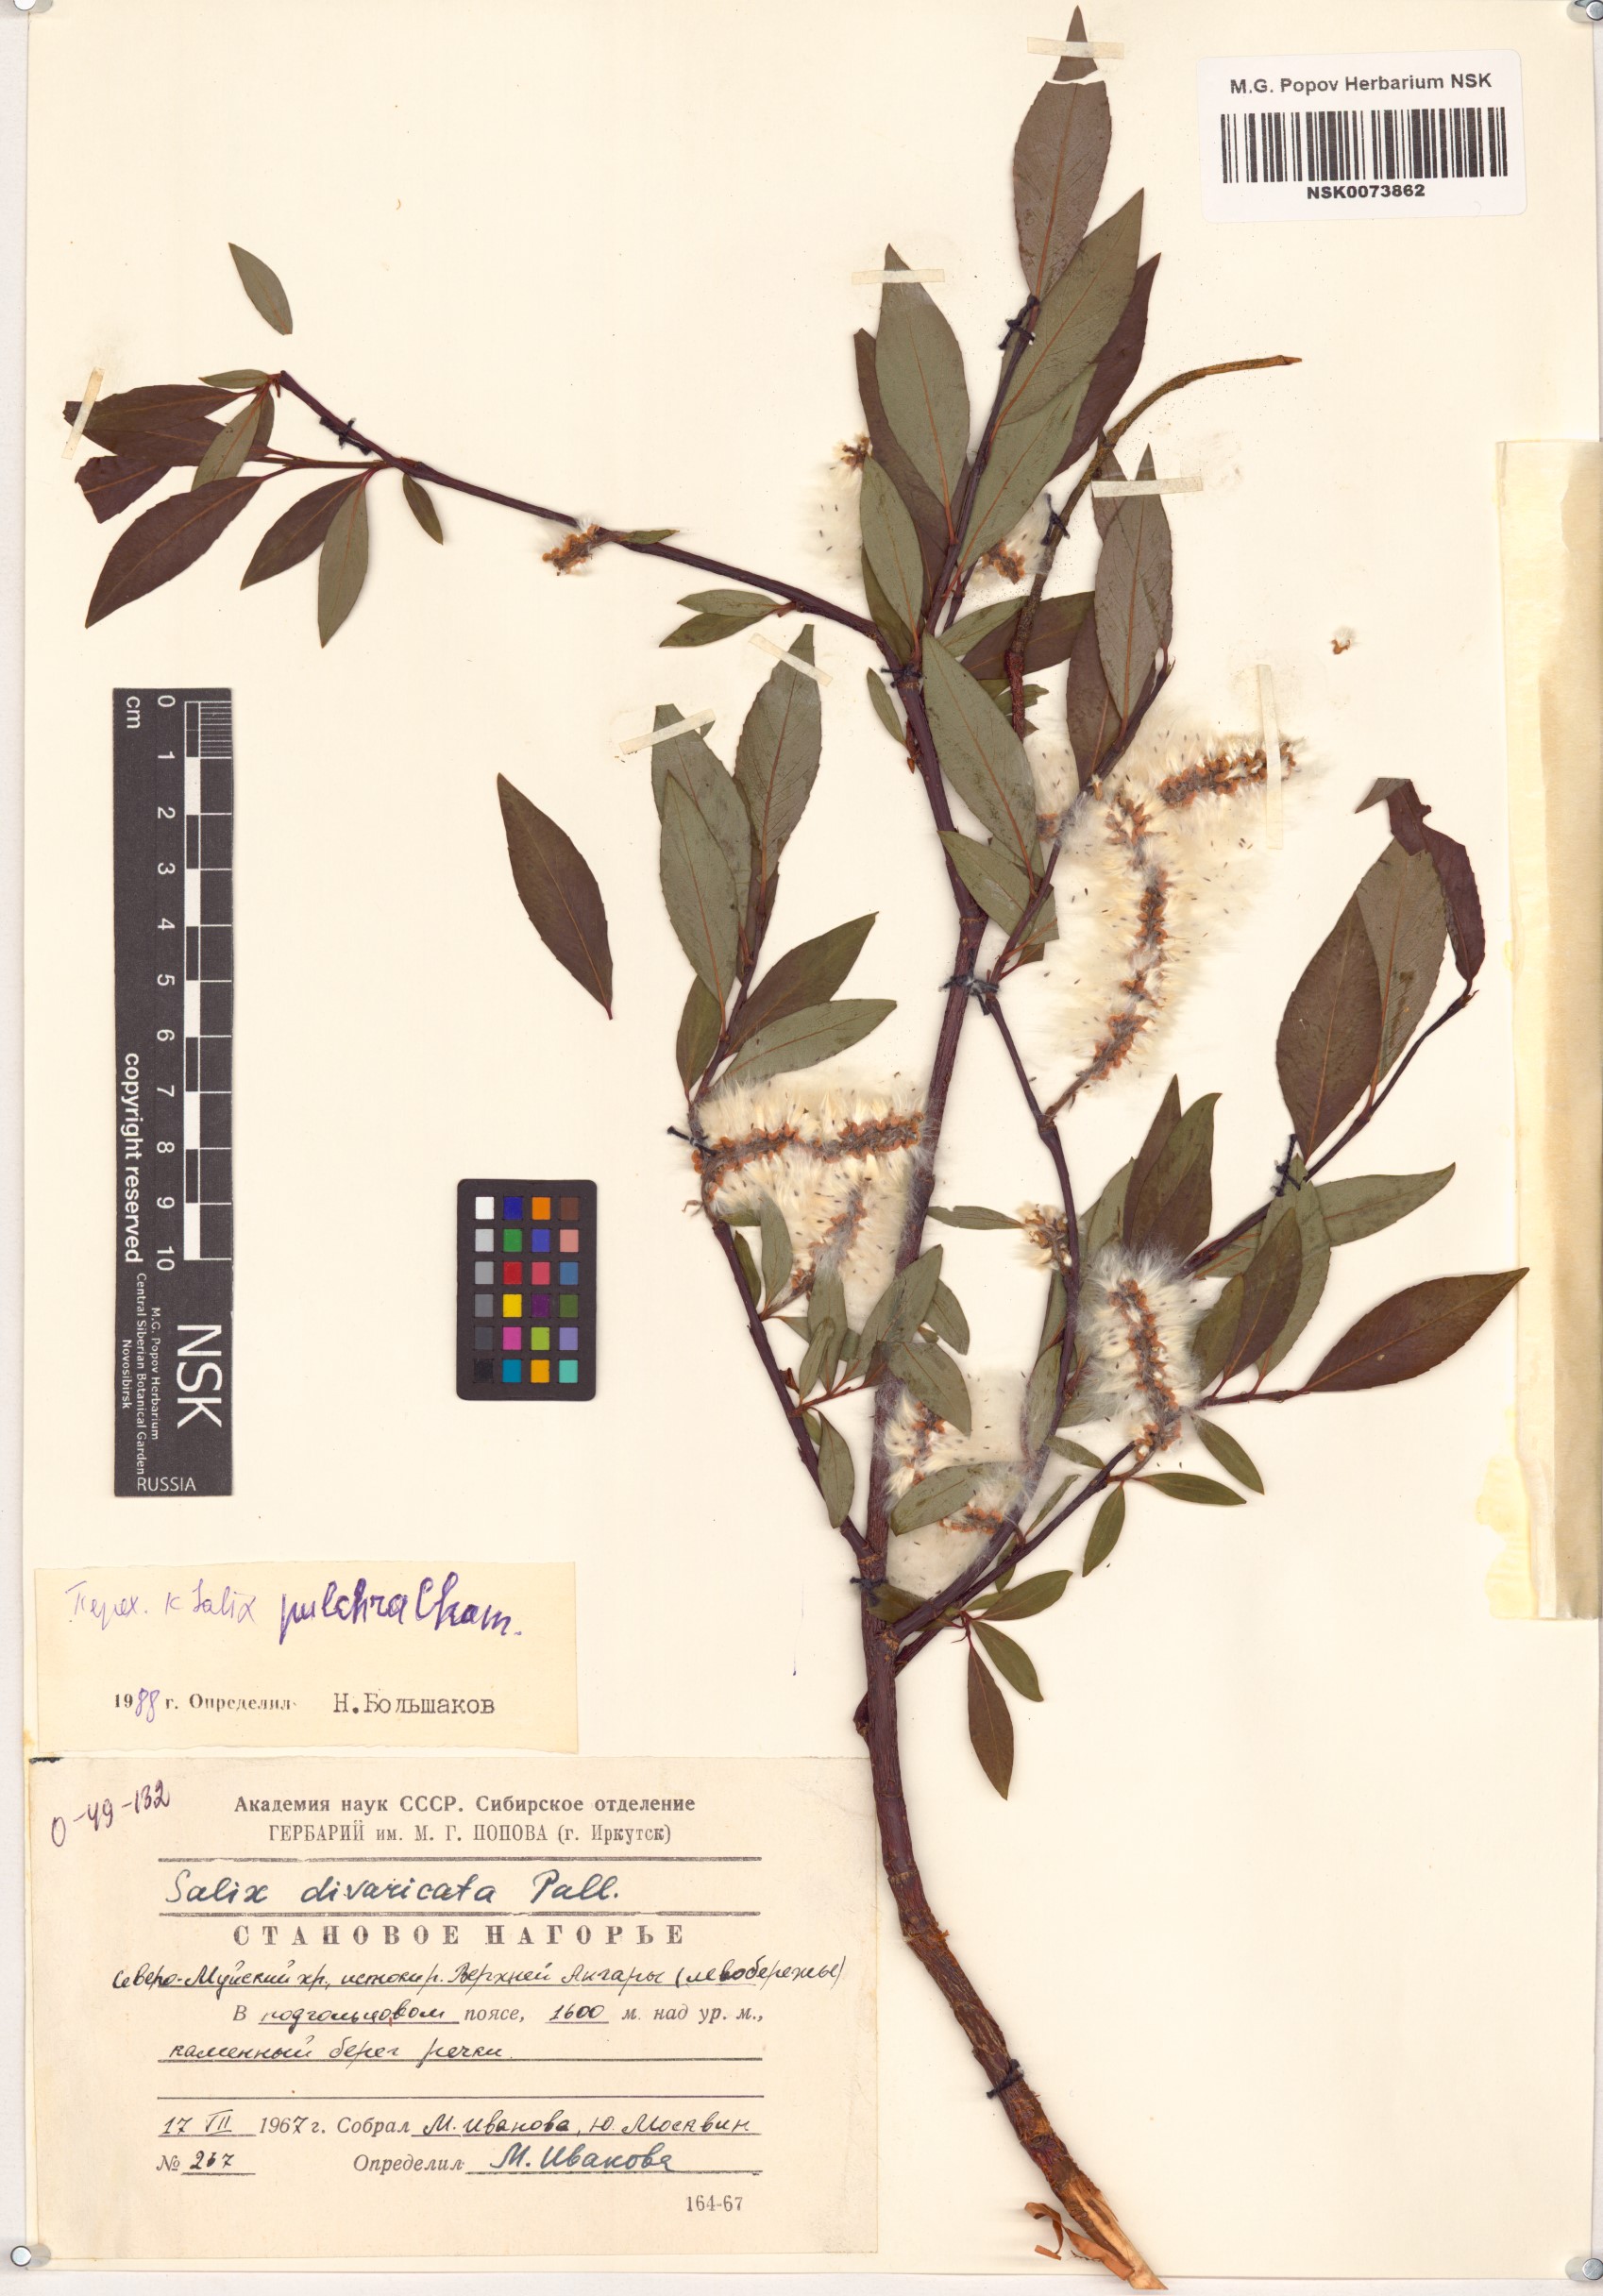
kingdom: Plantae
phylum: Tracheophyta
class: Magnoliopsida
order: Malpighiales
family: Salicaceae
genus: Salix
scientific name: Salix divaricata
